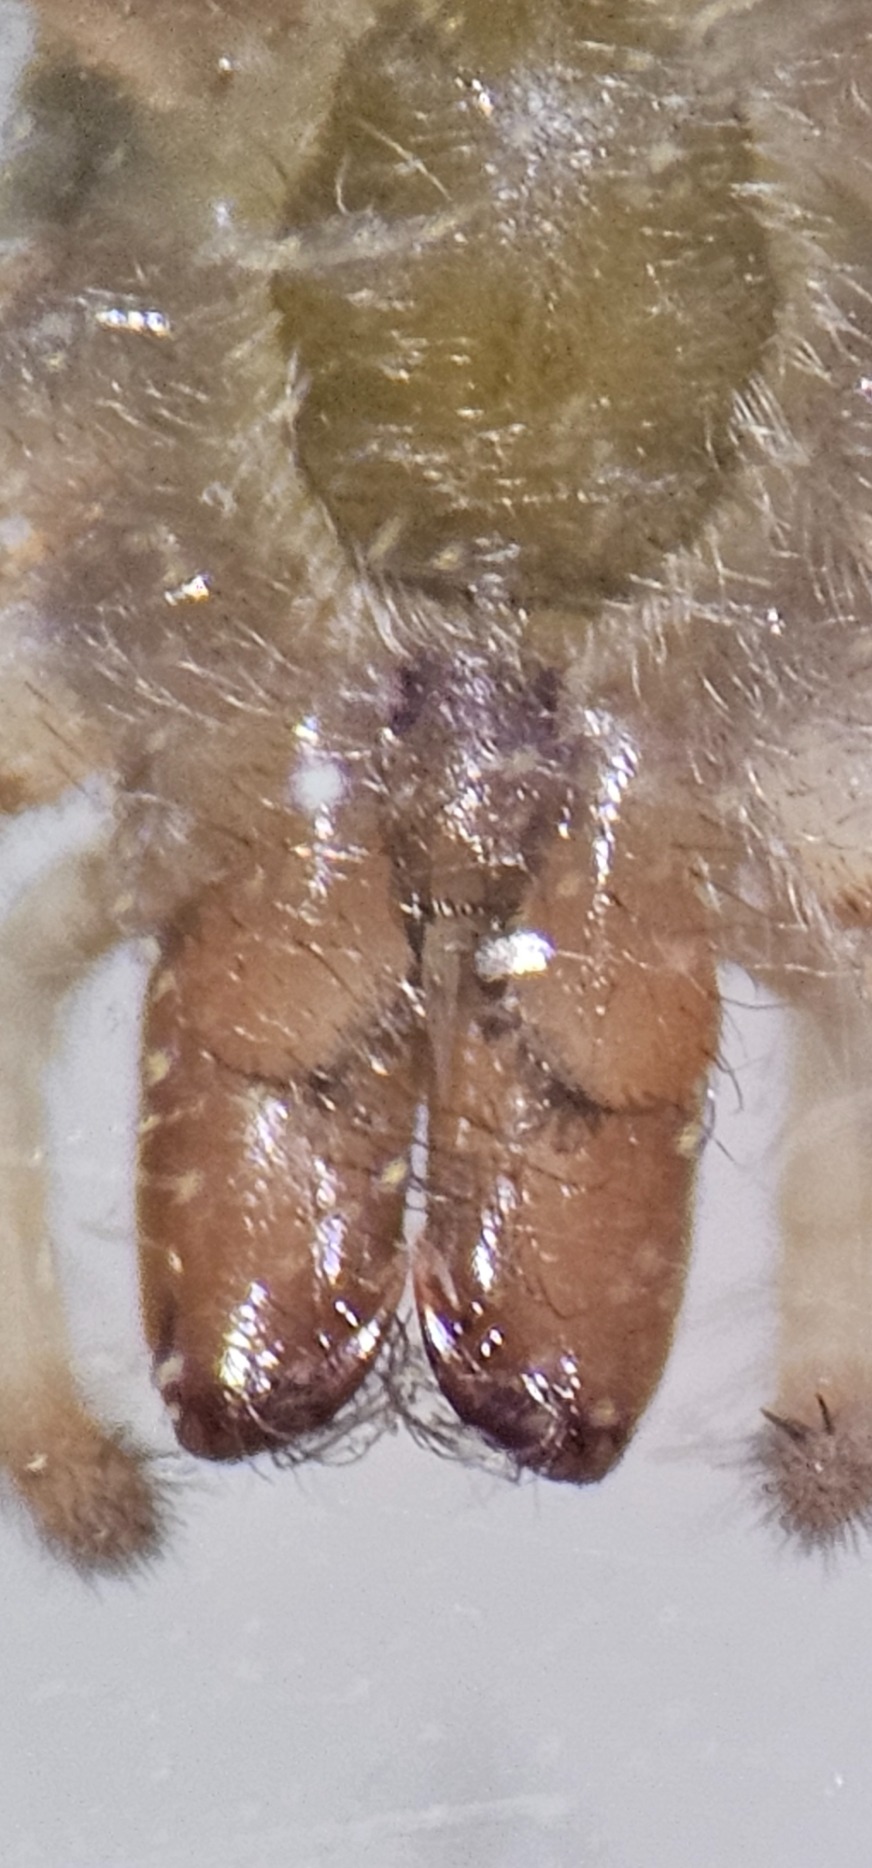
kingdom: Animalia
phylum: Arthropoda
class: Arachnida
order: Araneae
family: Clubionidae
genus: Clubiona
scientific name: Clubiona
